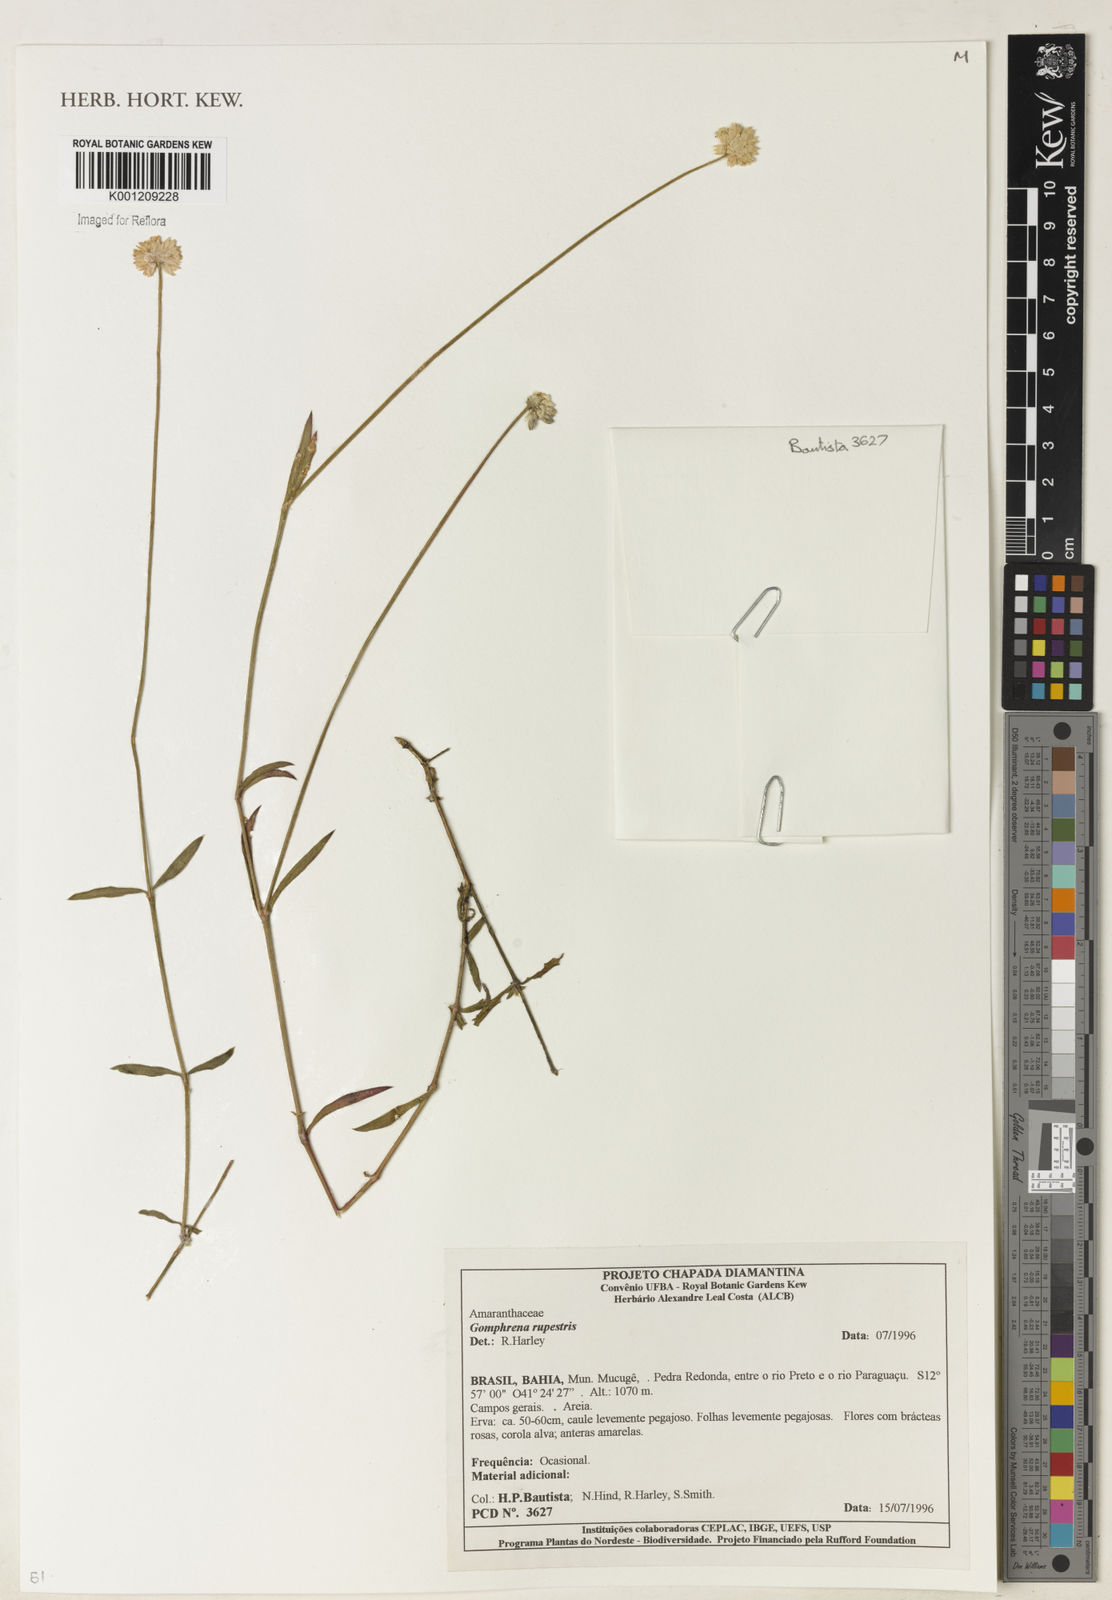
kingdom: Plantae
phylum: Tracheophyta
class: Magnoliopsida
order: Caryophyllales
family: Amaranthaceae
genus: Gomphrena
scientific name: Gomphrena rupestris
